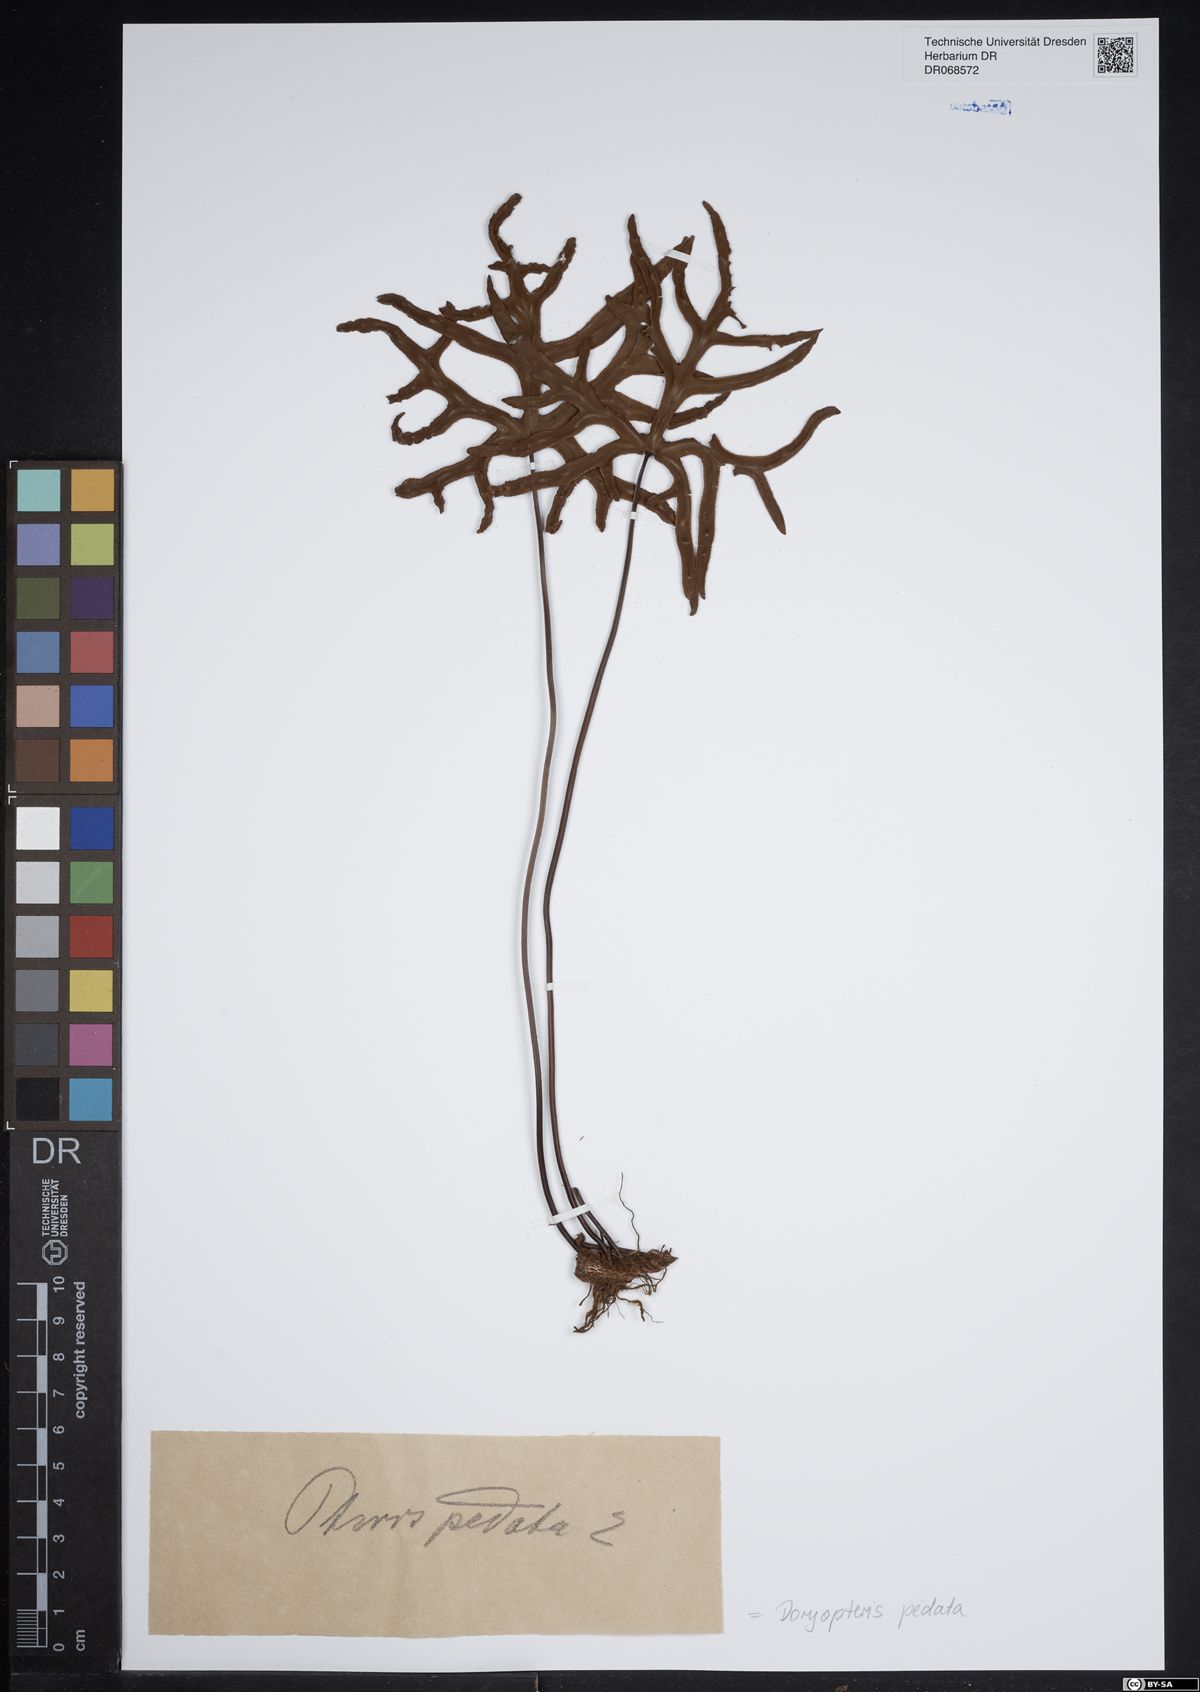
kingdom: Plantae
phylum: Tracheophyta
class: Polypodiopsida
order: Polypodiales
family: Pteridaceae
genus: Doryopteris
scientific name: Doryopteris pedata
